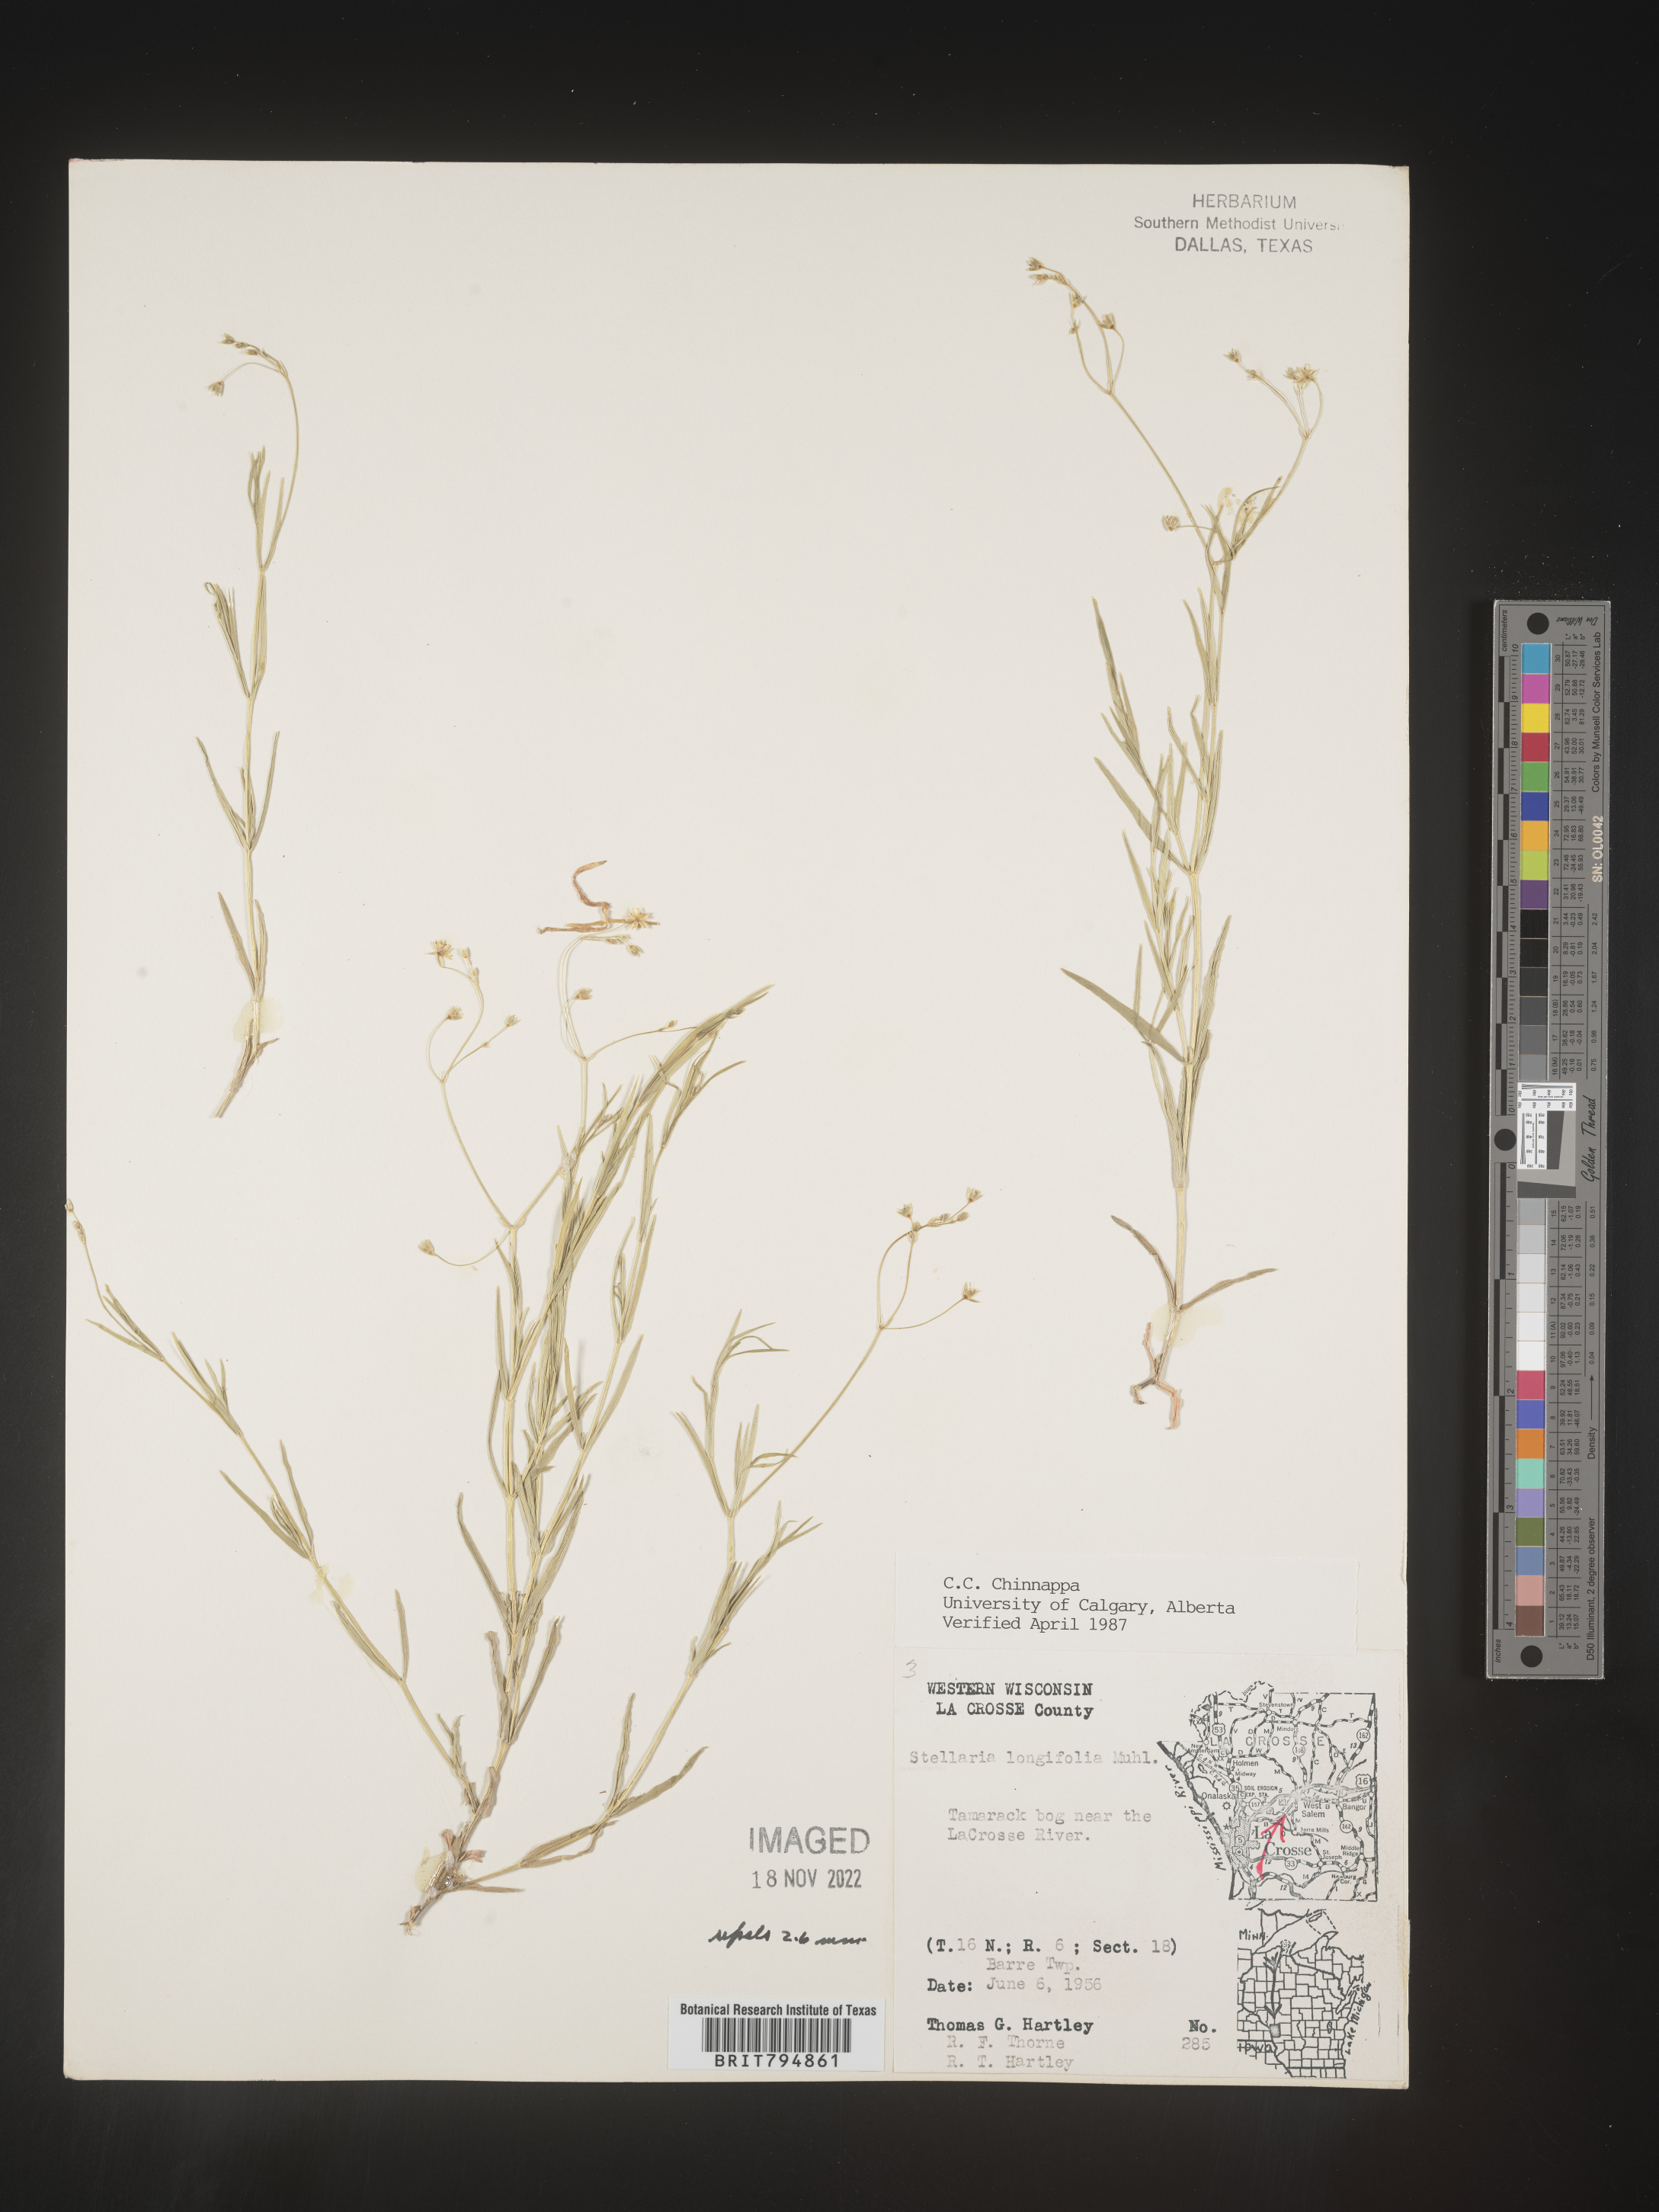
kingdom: Plantae
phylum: Tracheophyta
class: Magnoliopsida
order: Caryophyllales
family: Caryophyllaceae
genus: Stellaria
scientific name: Stellaria longifolia
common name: Long-leaved chickweed
